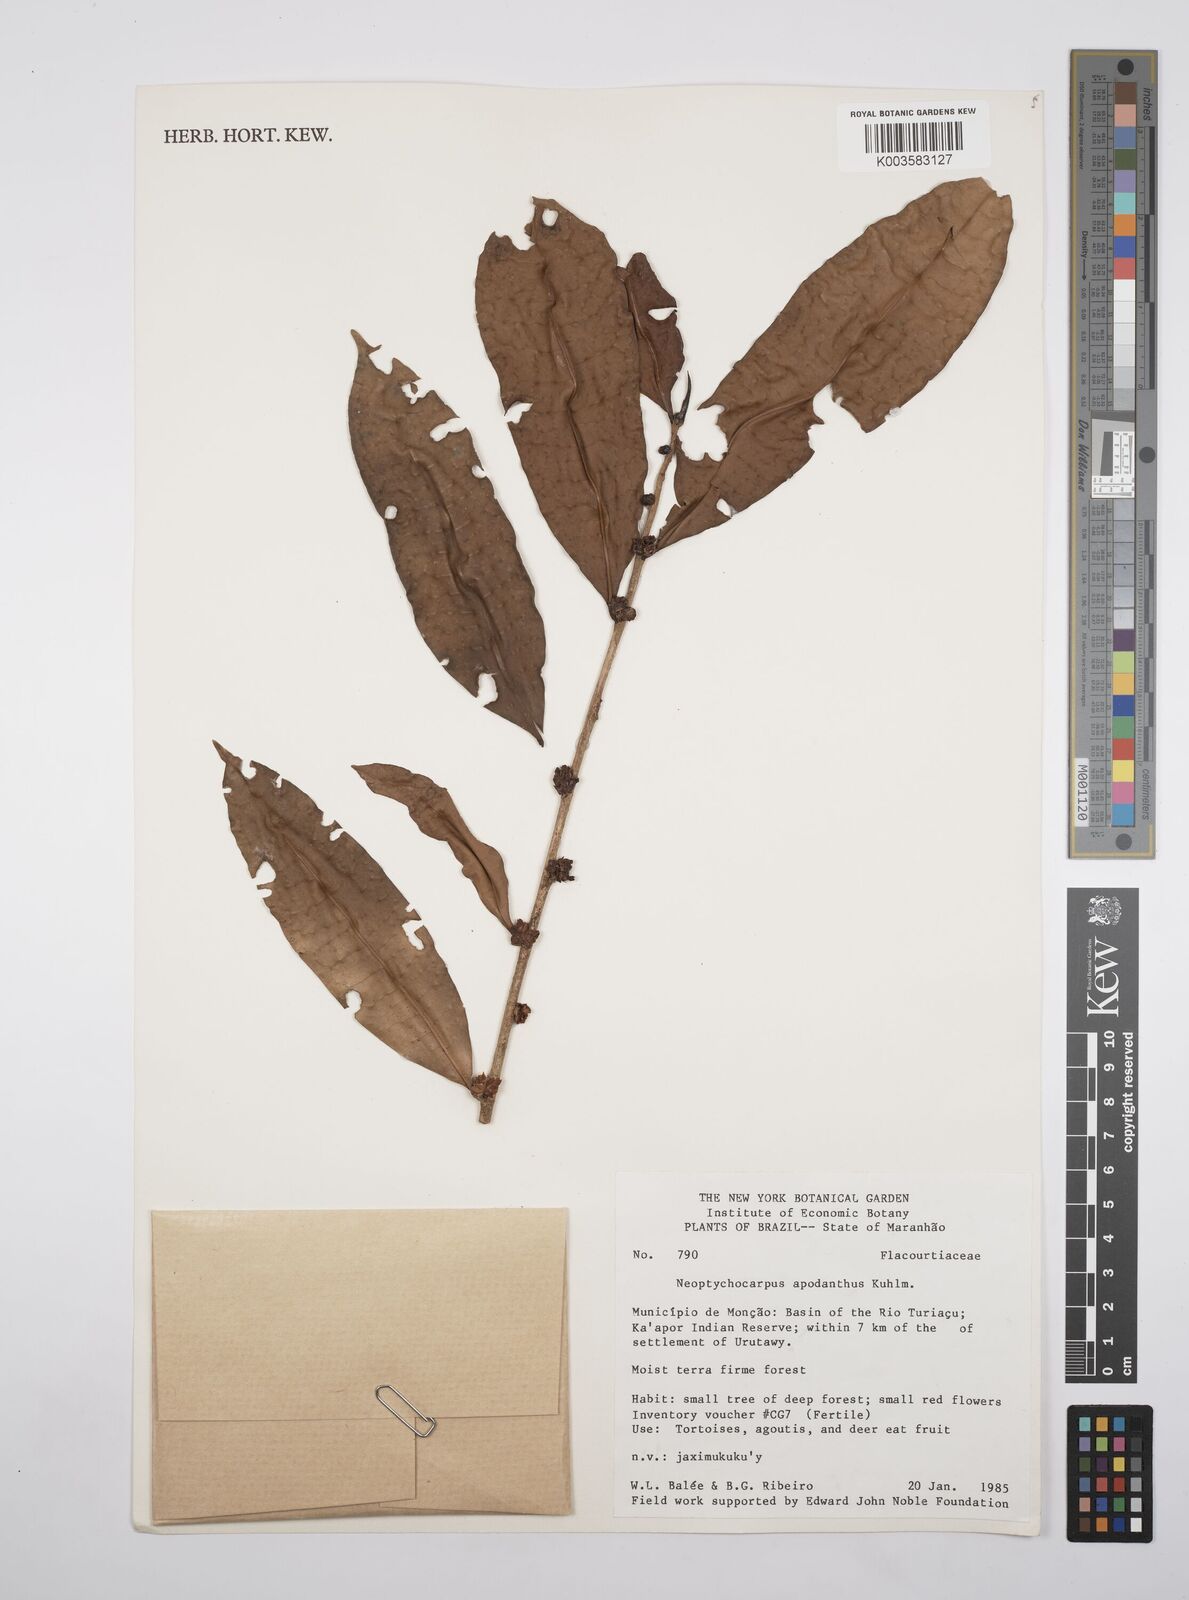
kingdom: Plantae
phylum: Tracheophyta
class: Magnoliopsida
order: Malpighiales
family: Salicaceae
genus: Casearia
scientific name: Casearia apodantha
